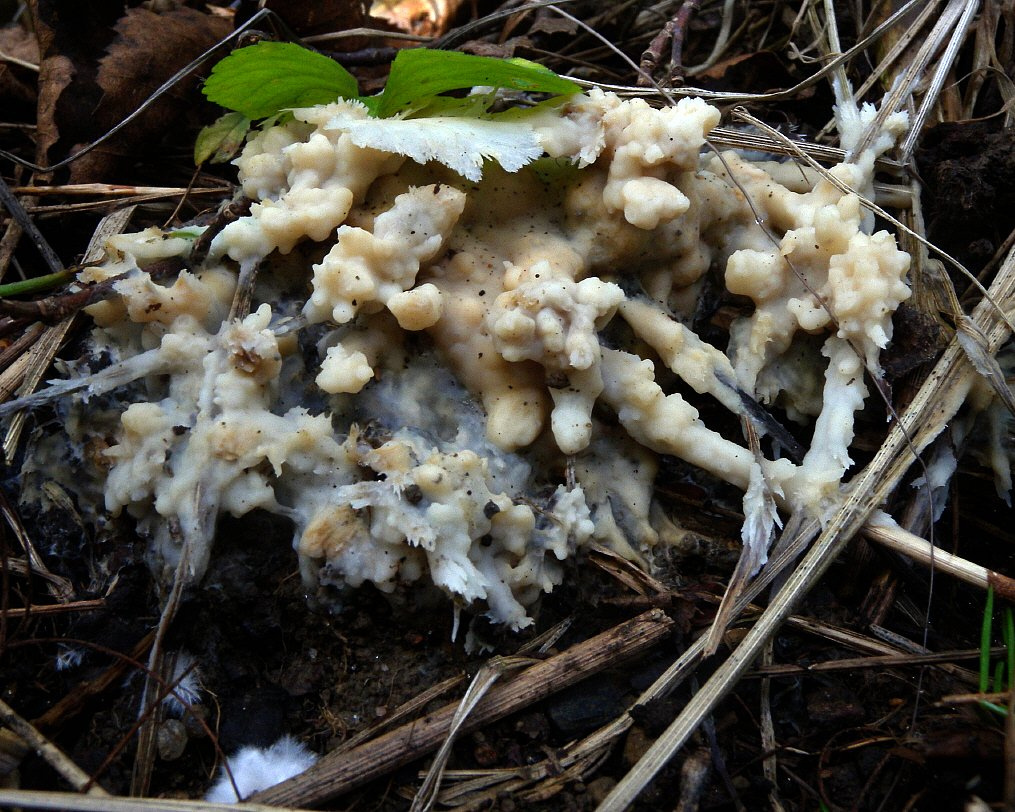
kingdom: Fungi
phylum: Basidiomycota
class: Agaricomycetes
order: Sebacinales
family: Sebacinaceae
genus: Sebacina
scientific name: Sebacina incrustans
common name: Enveloping crust
